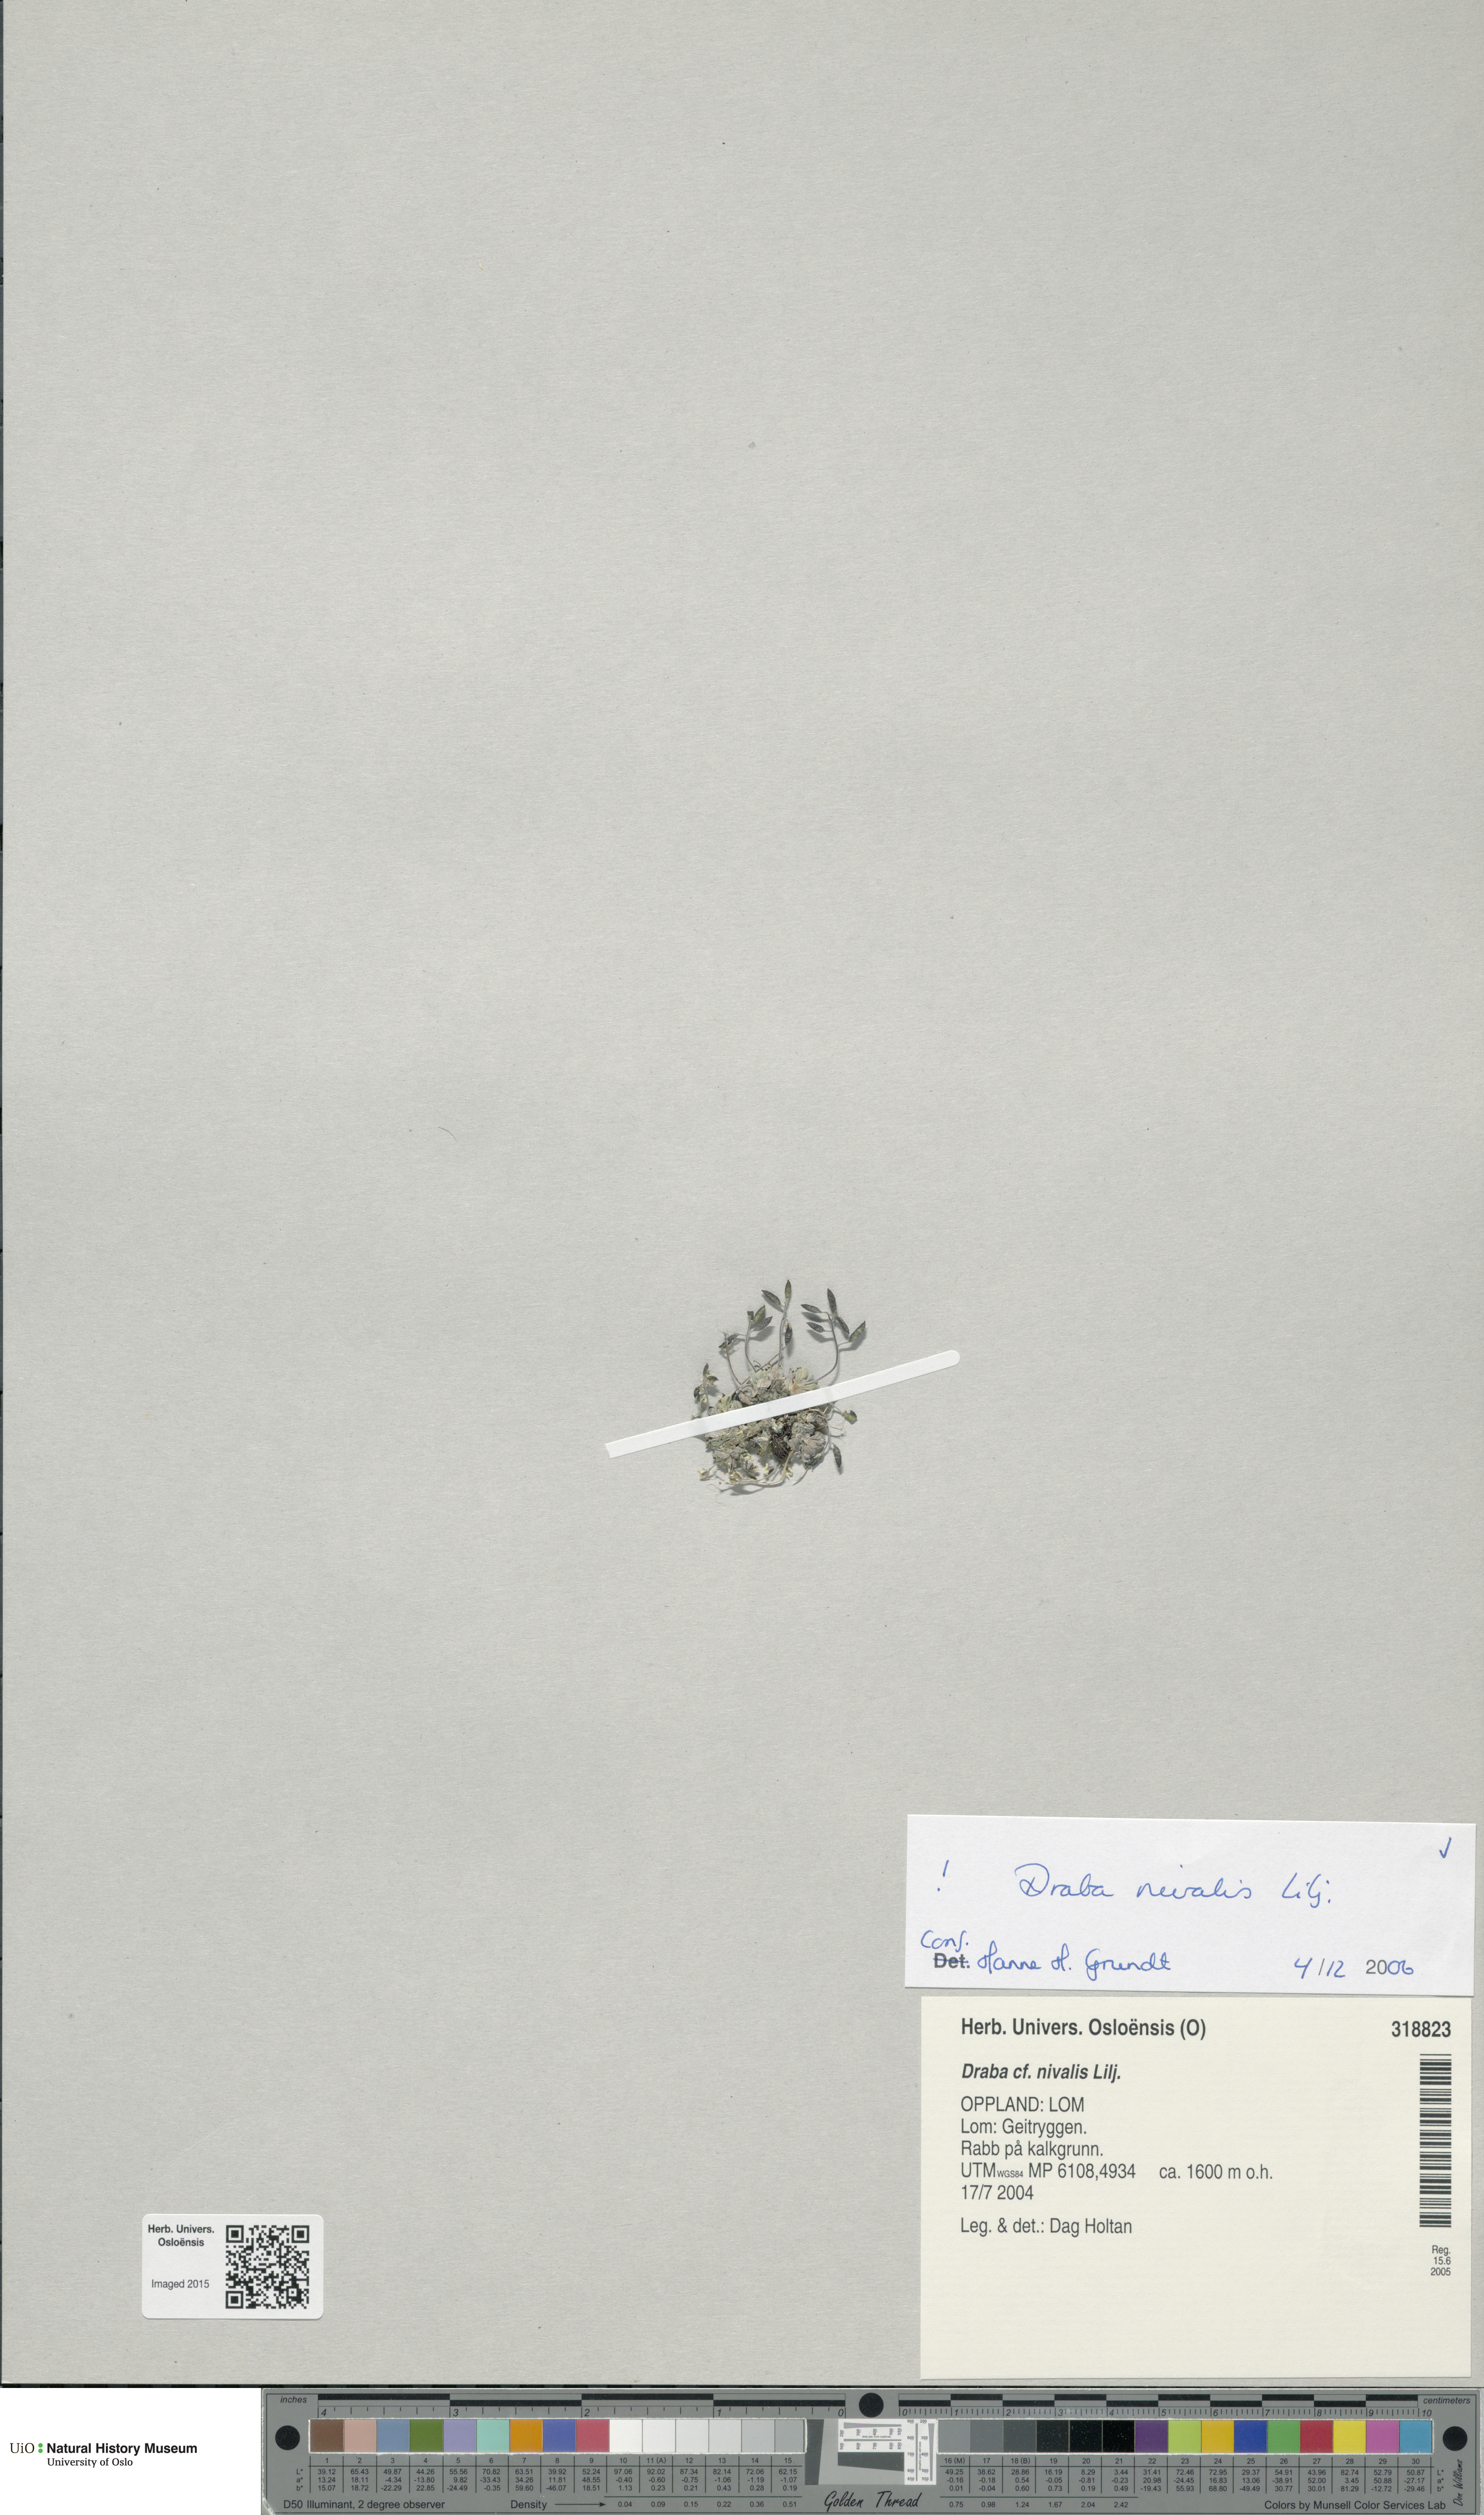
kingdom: Plantae
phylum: Tracheophyta
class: Magnoliopsida
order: Brassicales
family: Brassicaceae
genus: Draba
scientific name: Draba nivalis
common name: Snow draba
